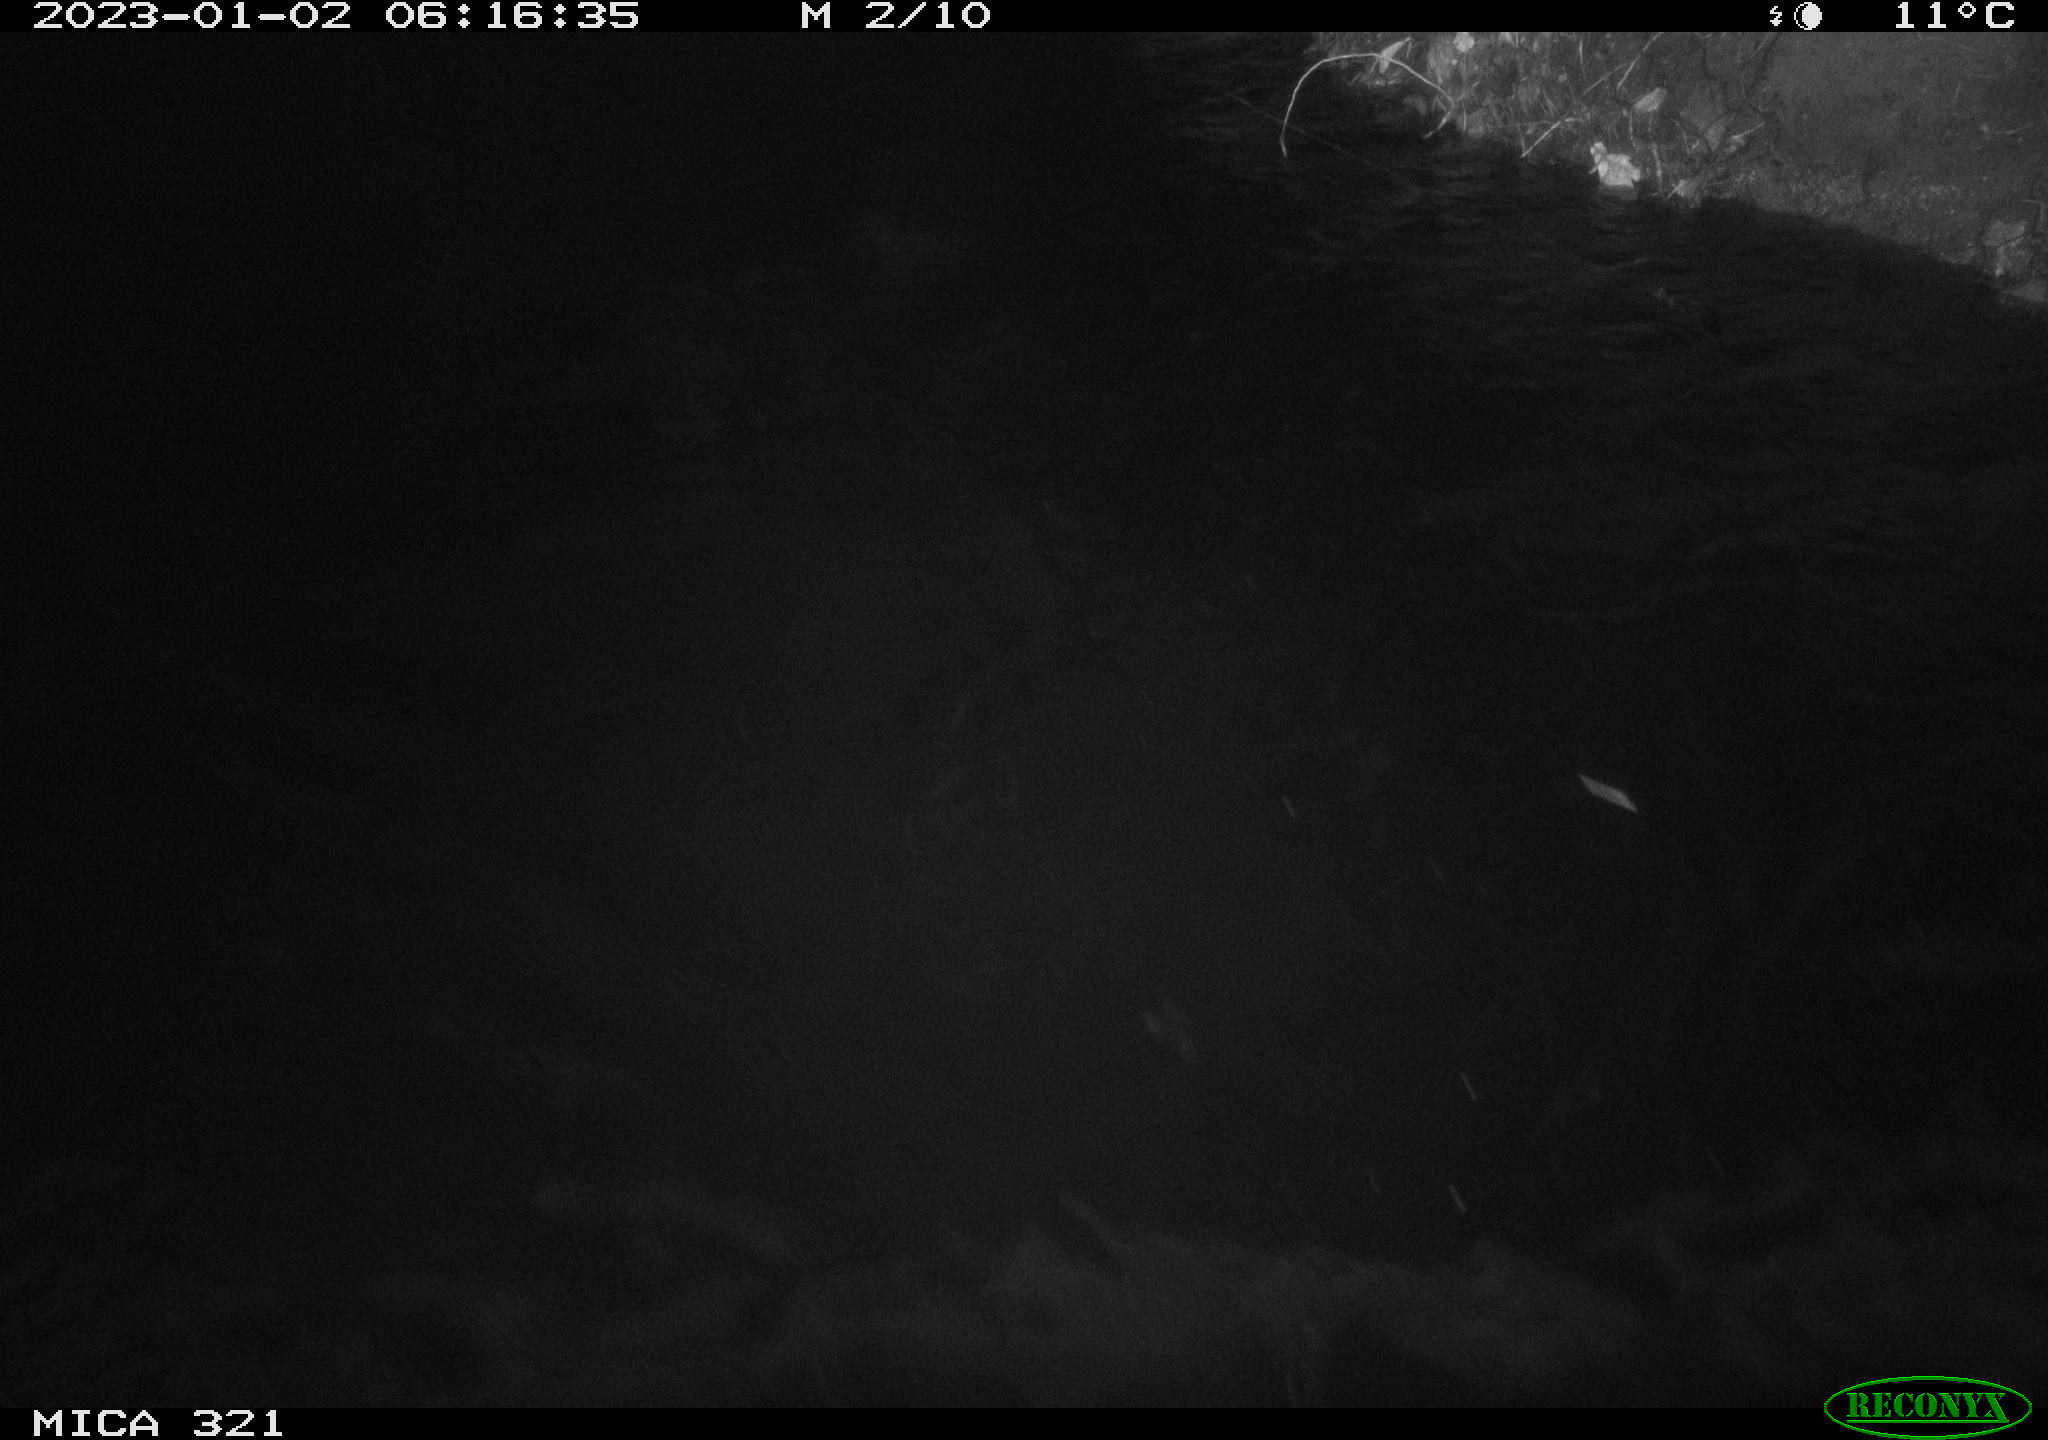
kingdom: Animalia
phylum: Chordata
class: Aves
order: Anseriformes
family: Anatidae
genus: Anas
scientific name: Anas
